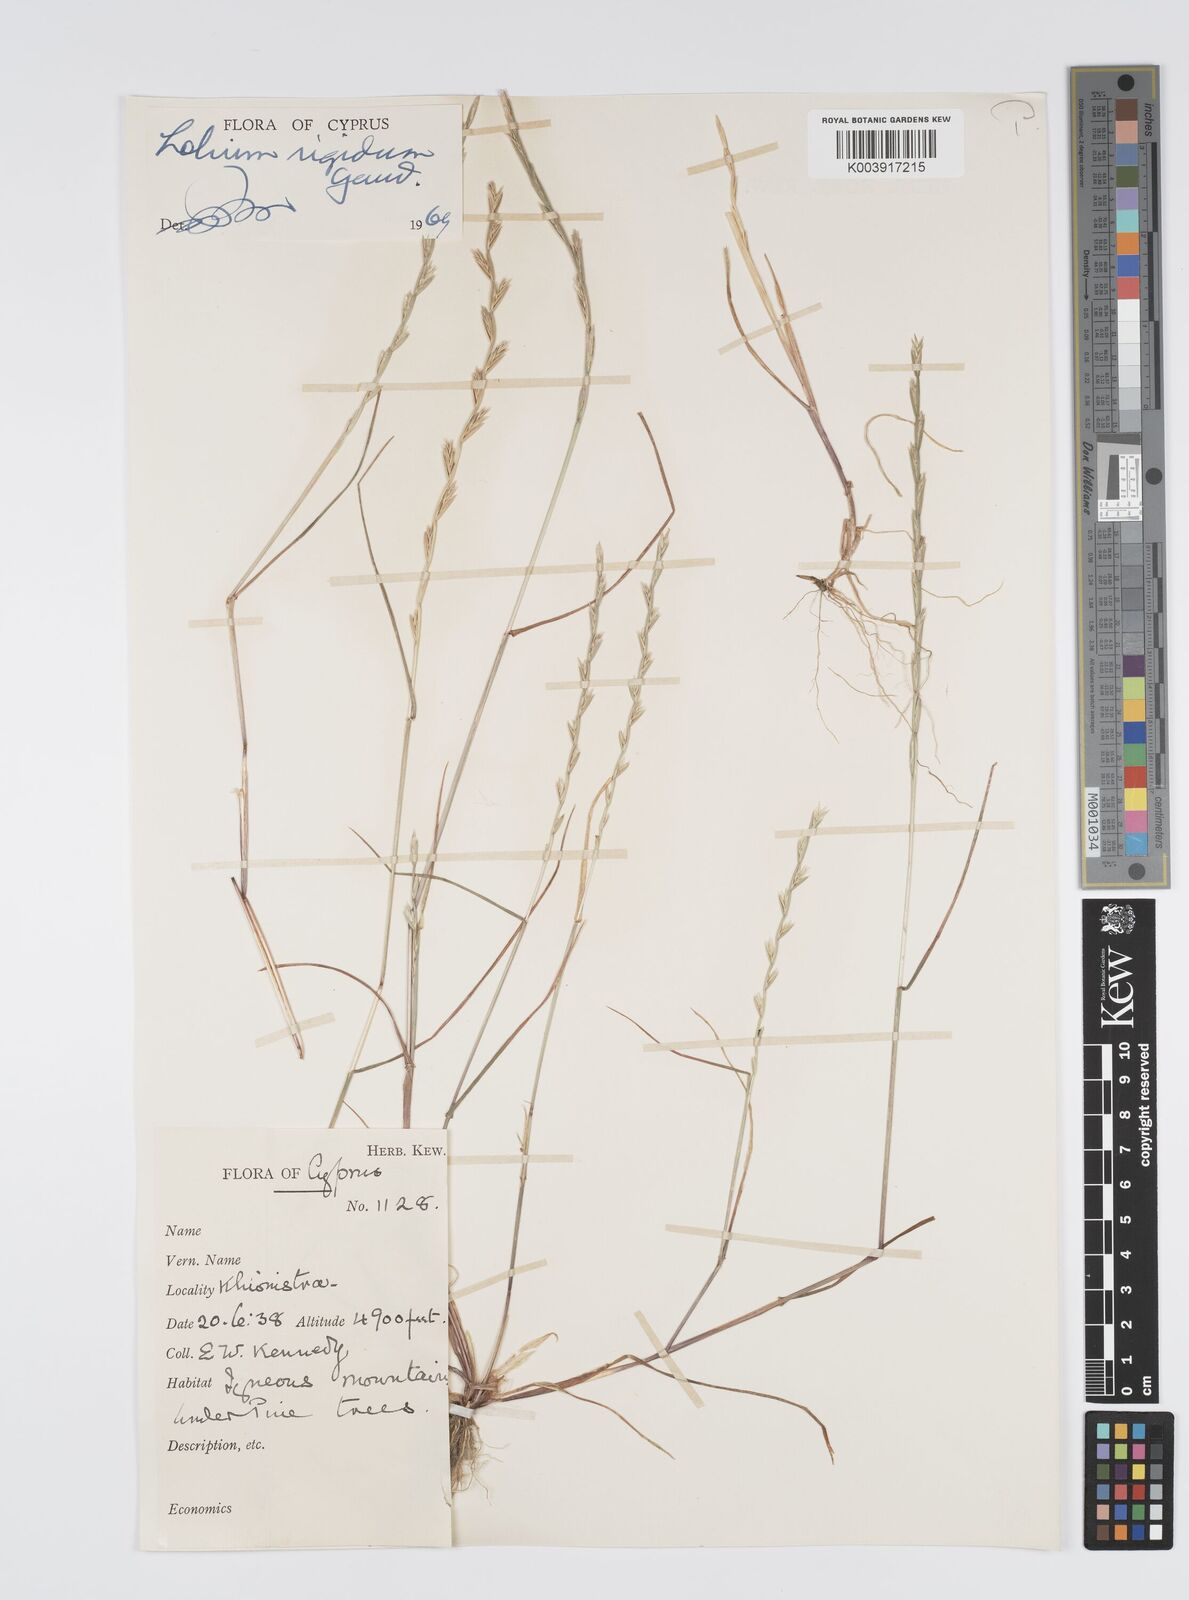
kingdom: Plantae
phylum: Tracheophyta
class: Liliopsida
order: Poales
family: Poaceae
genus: Lolium
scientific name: Lolium rigidum
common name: Wimmera ryegrass
